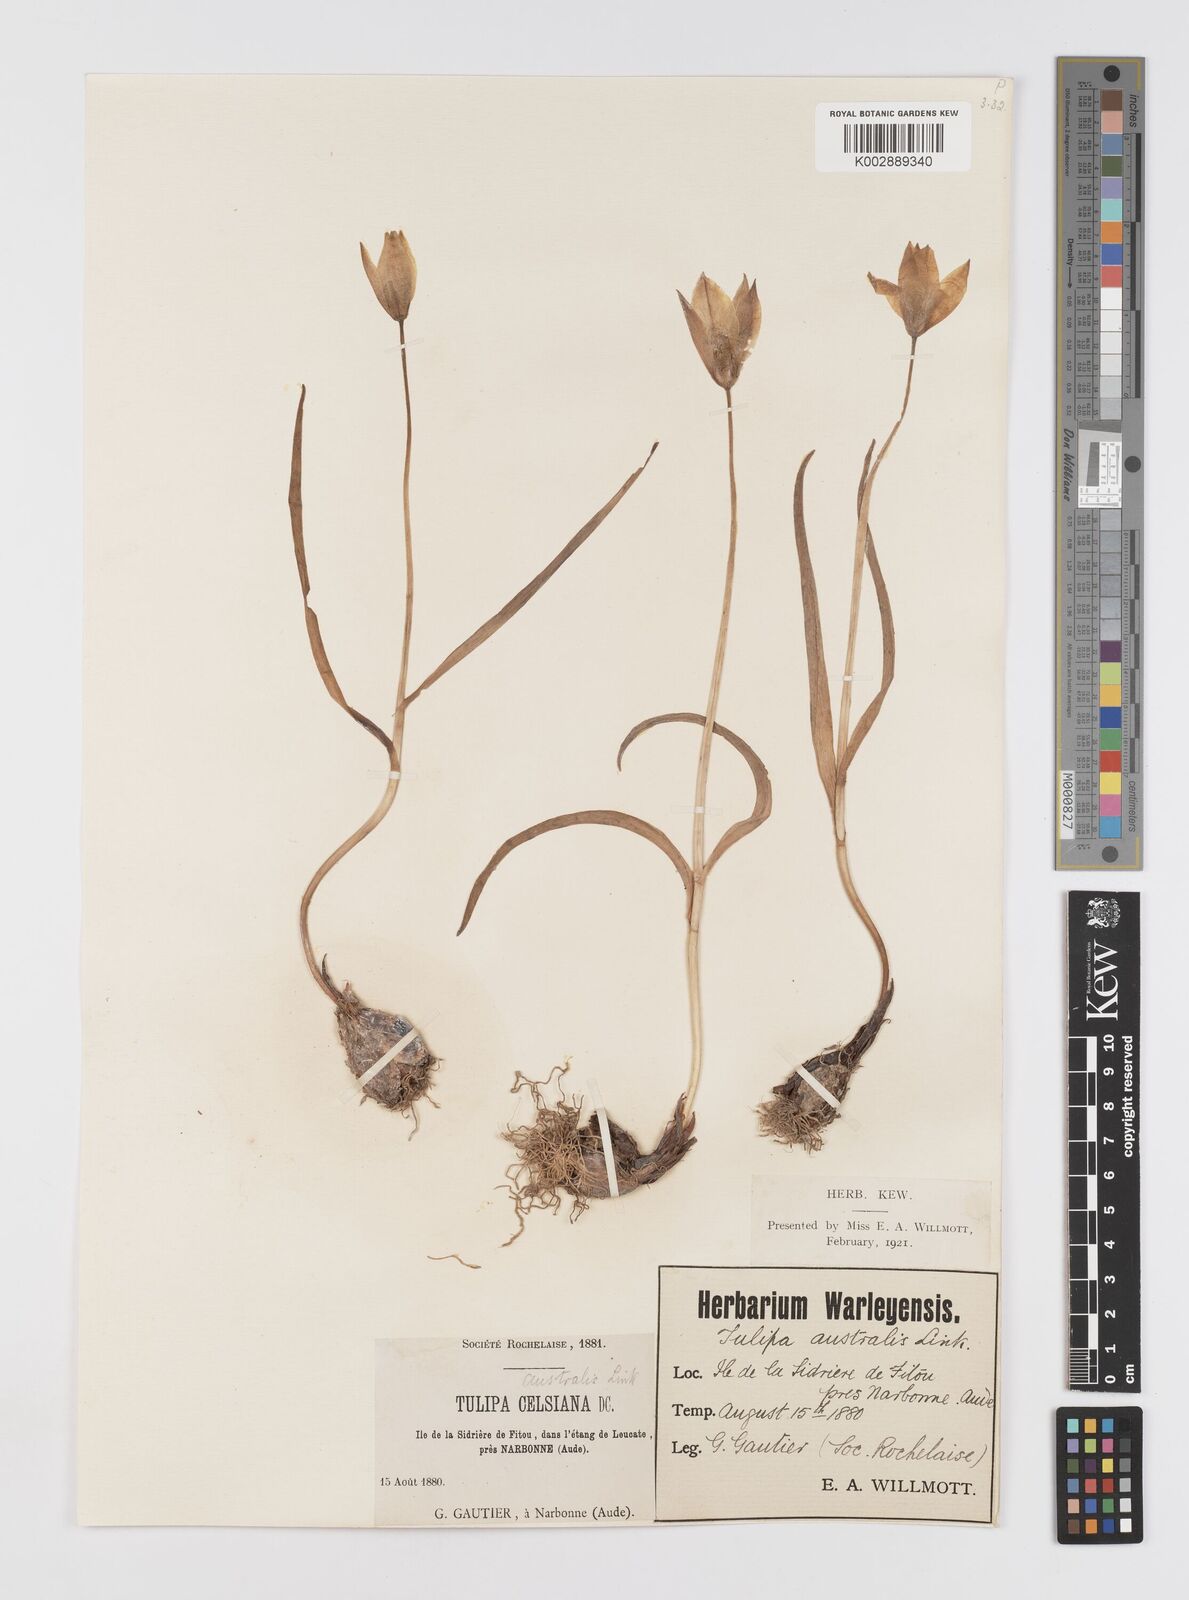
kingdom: Plantae
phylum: Tracheophyta
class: Liliopsida
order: Liliales
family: Liliaceae
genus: Tulipa
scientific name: Tulipa sylvestris
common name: Wild tulip
